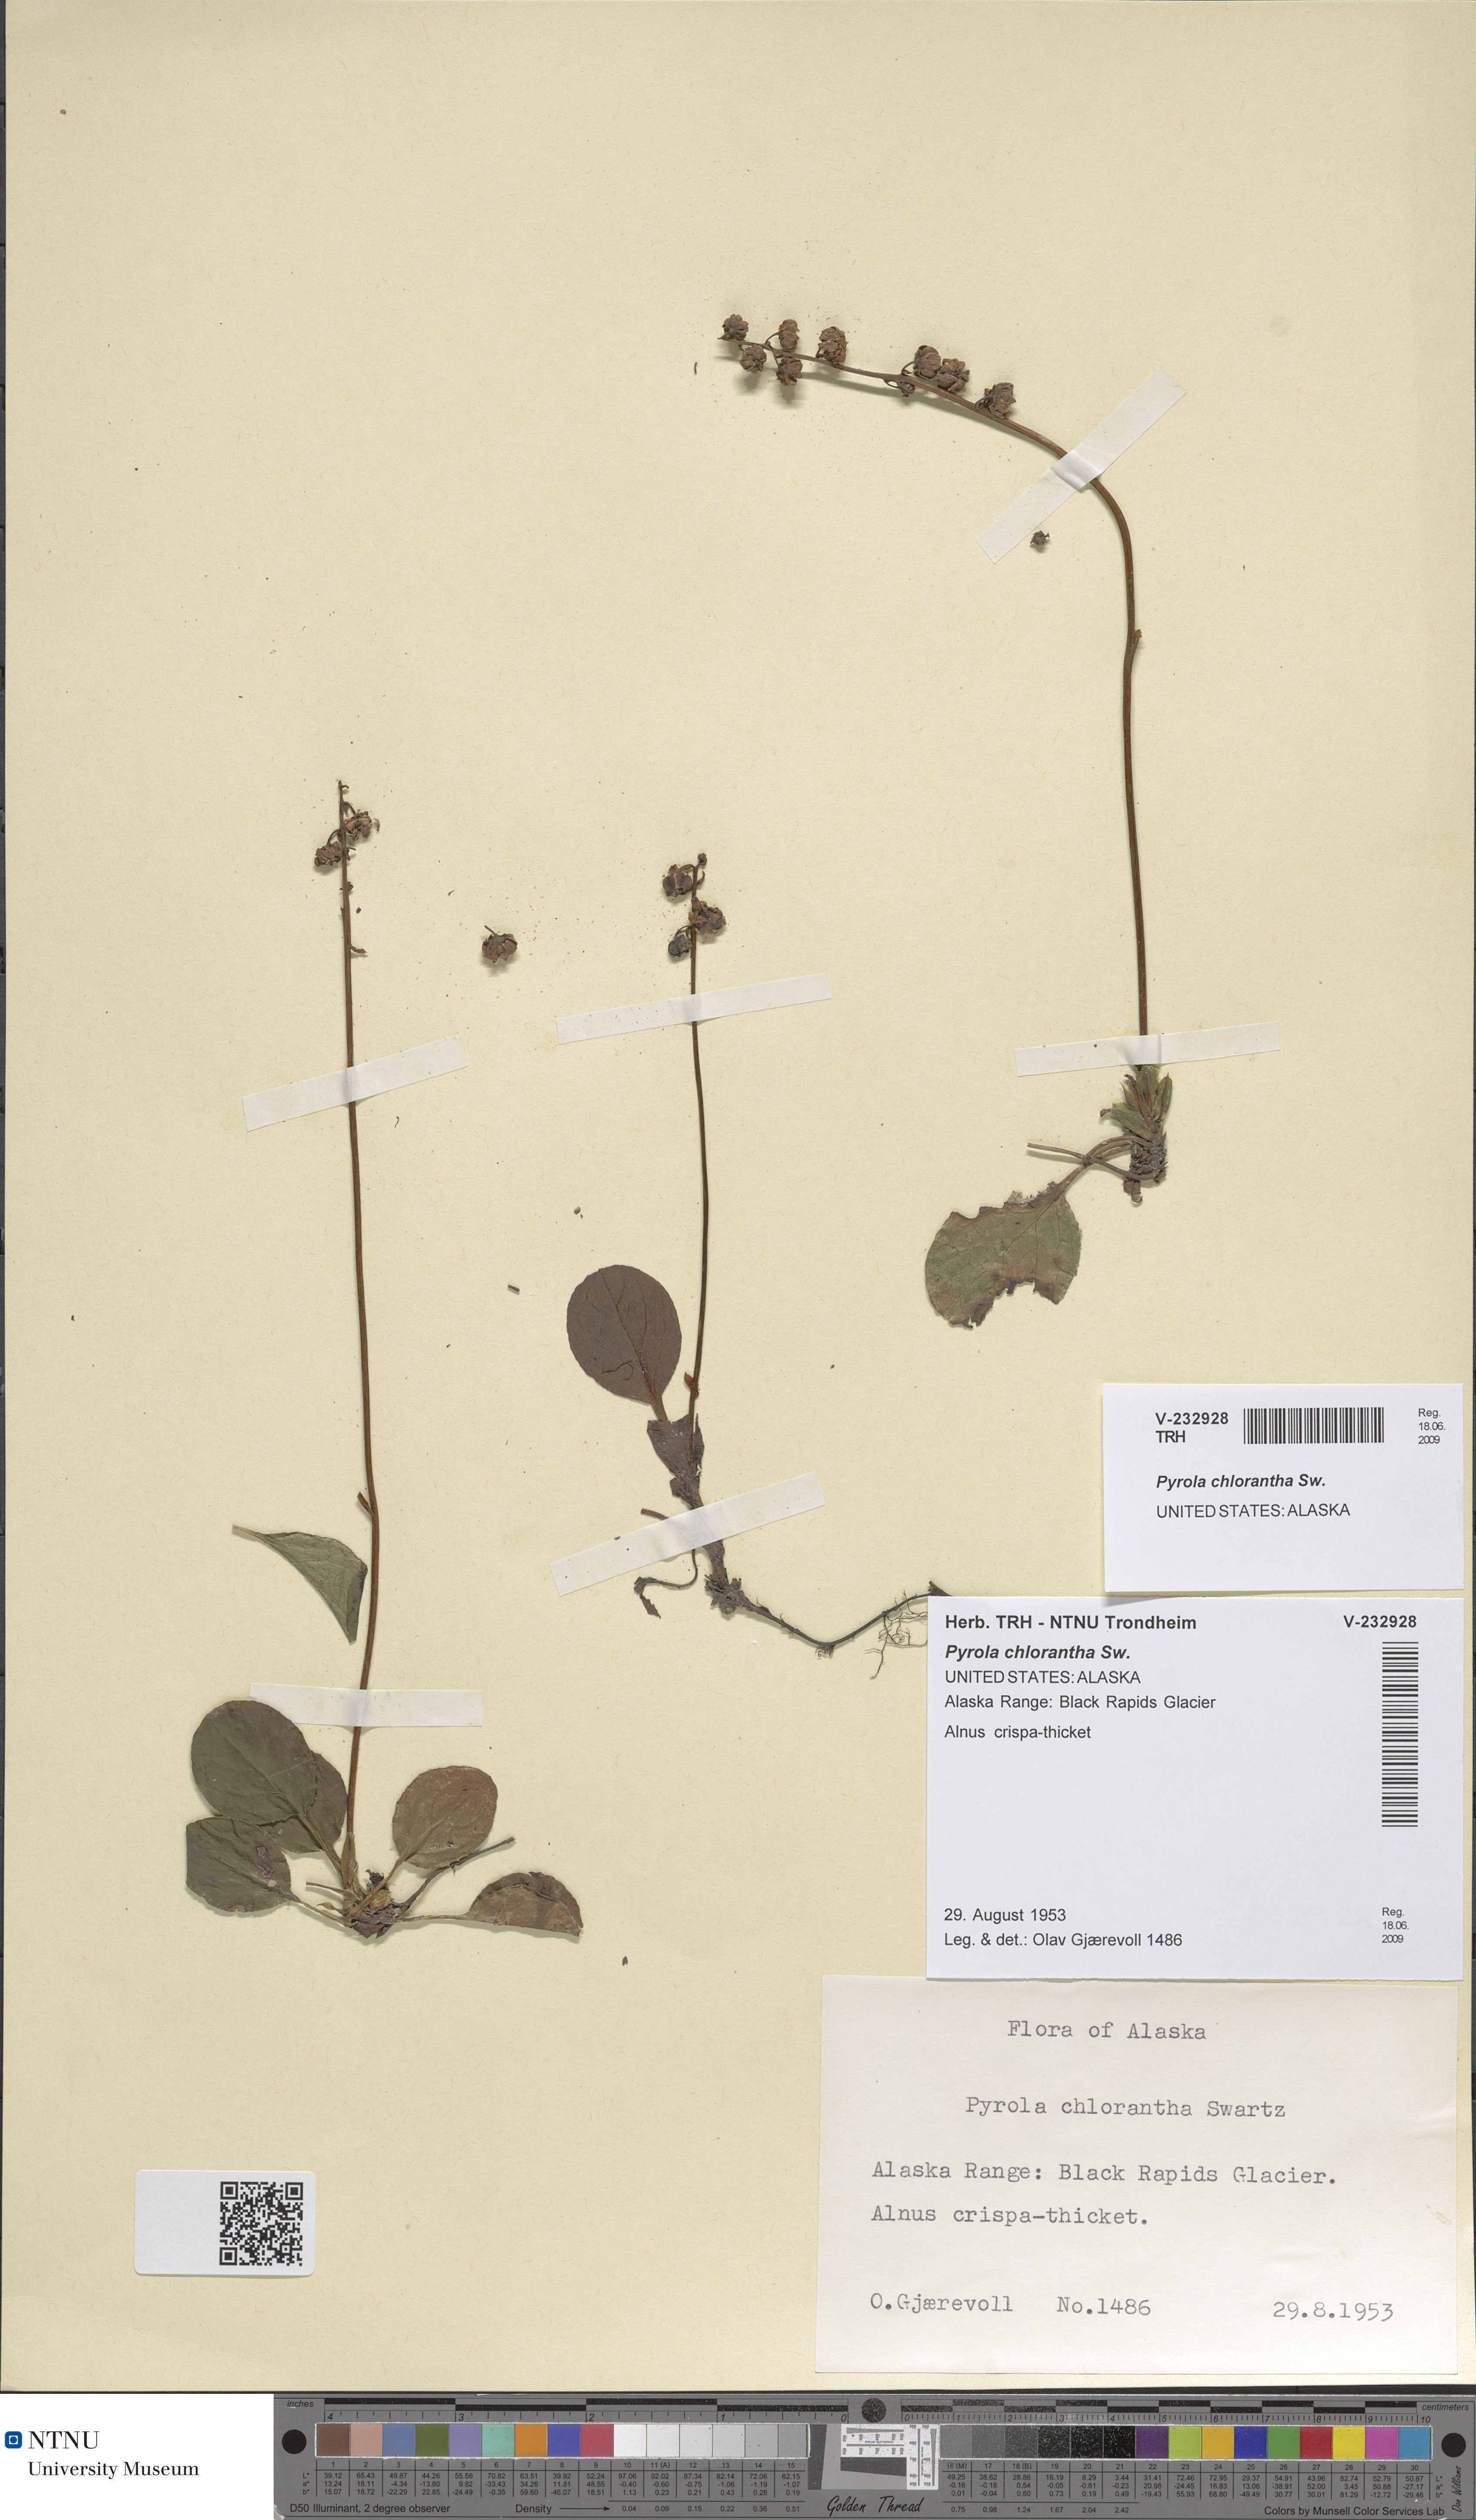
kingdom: Plantae
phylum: Tracheophyta
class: Magnoliopsida
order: Ericales
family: Ericaceae
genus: Pyrola
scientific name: Pyrola chlorantha
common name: Green wintergreen
